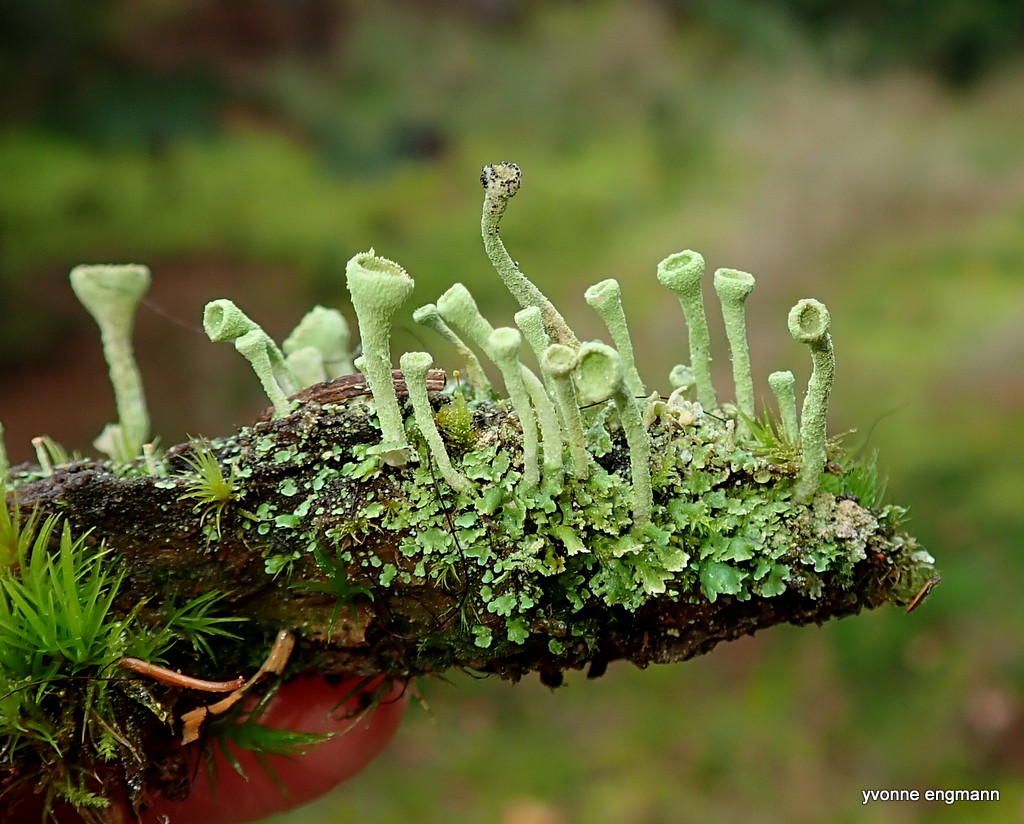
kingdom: Fungi
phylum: Ascomycota
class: Lecanoromycetes
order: Lecanorales
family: Cladoniaceae
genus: Cladonia
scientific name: Cladonia fimbriata
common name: bleggrøn bægerlav
